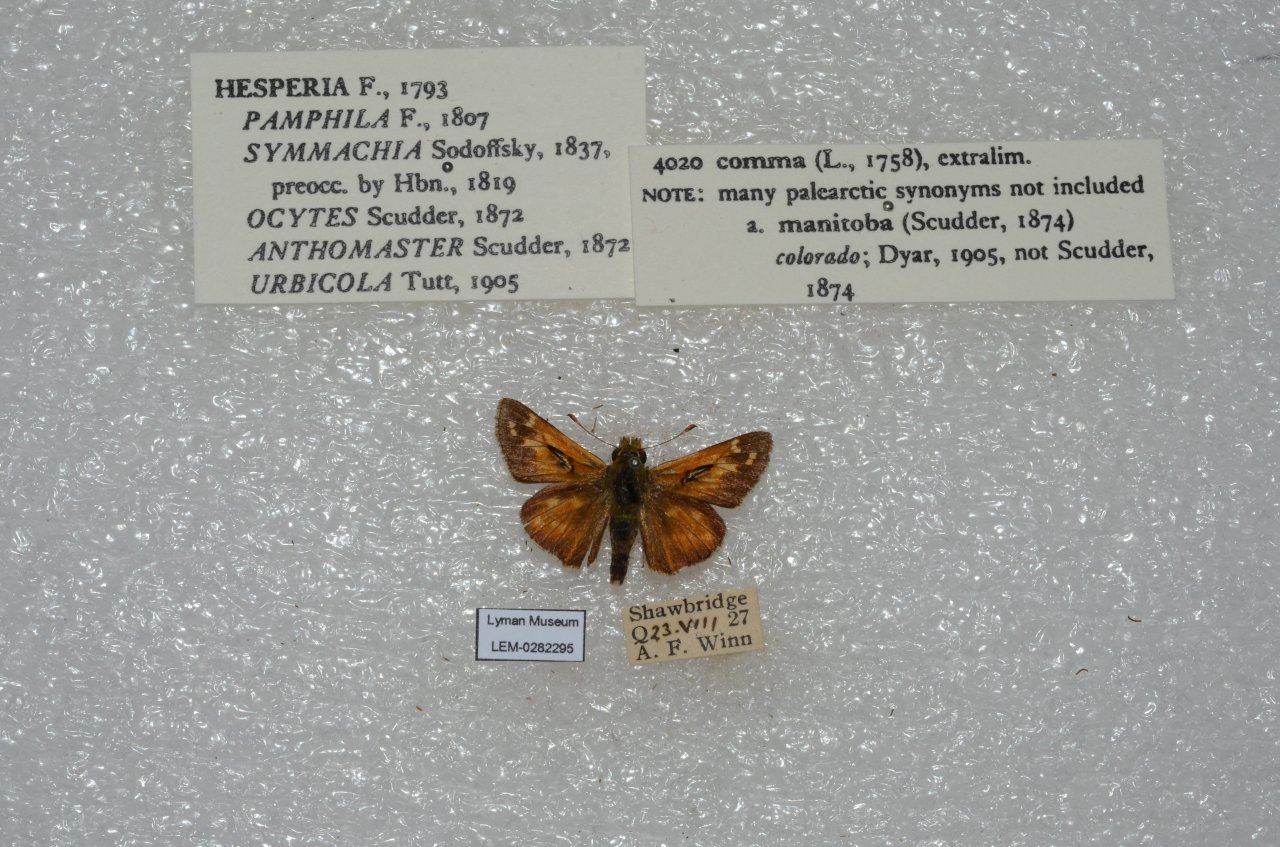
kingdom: Animalia
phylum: Arthropoda
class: Insecta
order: Lepidoptera
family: Hesperiidae
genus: Hesperia
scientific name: Hesperia comma
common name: Common Branded Skipper
